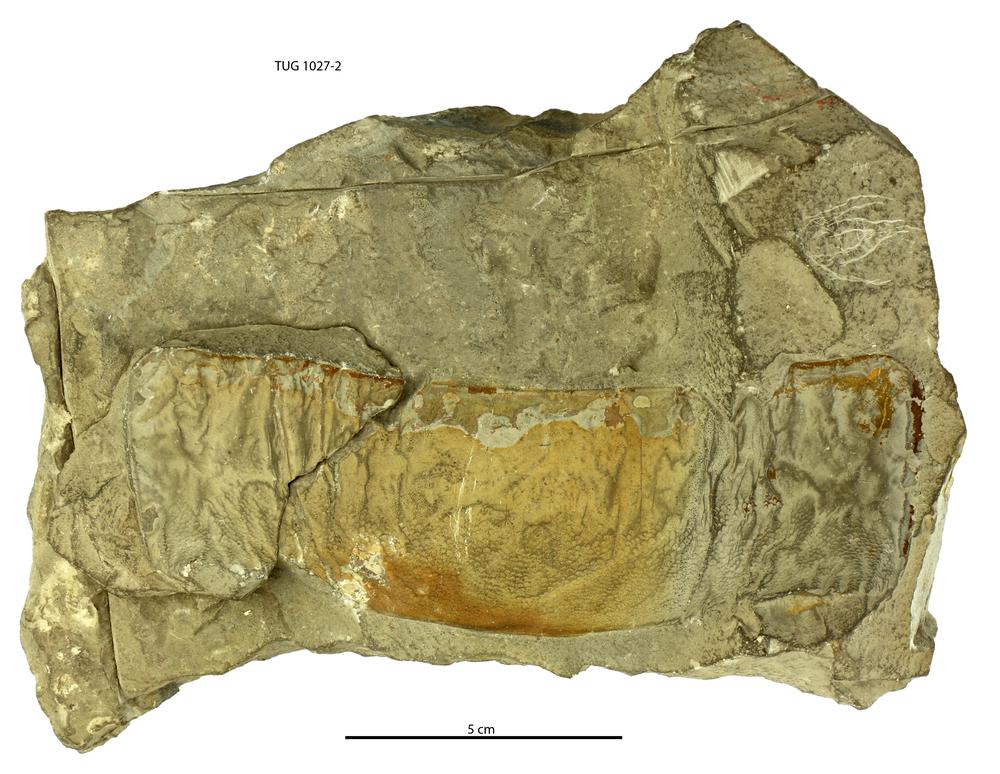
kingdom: Animalia
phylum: Arthropoda
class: Merostomata
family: Pterygotidae
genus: Erettopterus
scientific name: Erettopterus
